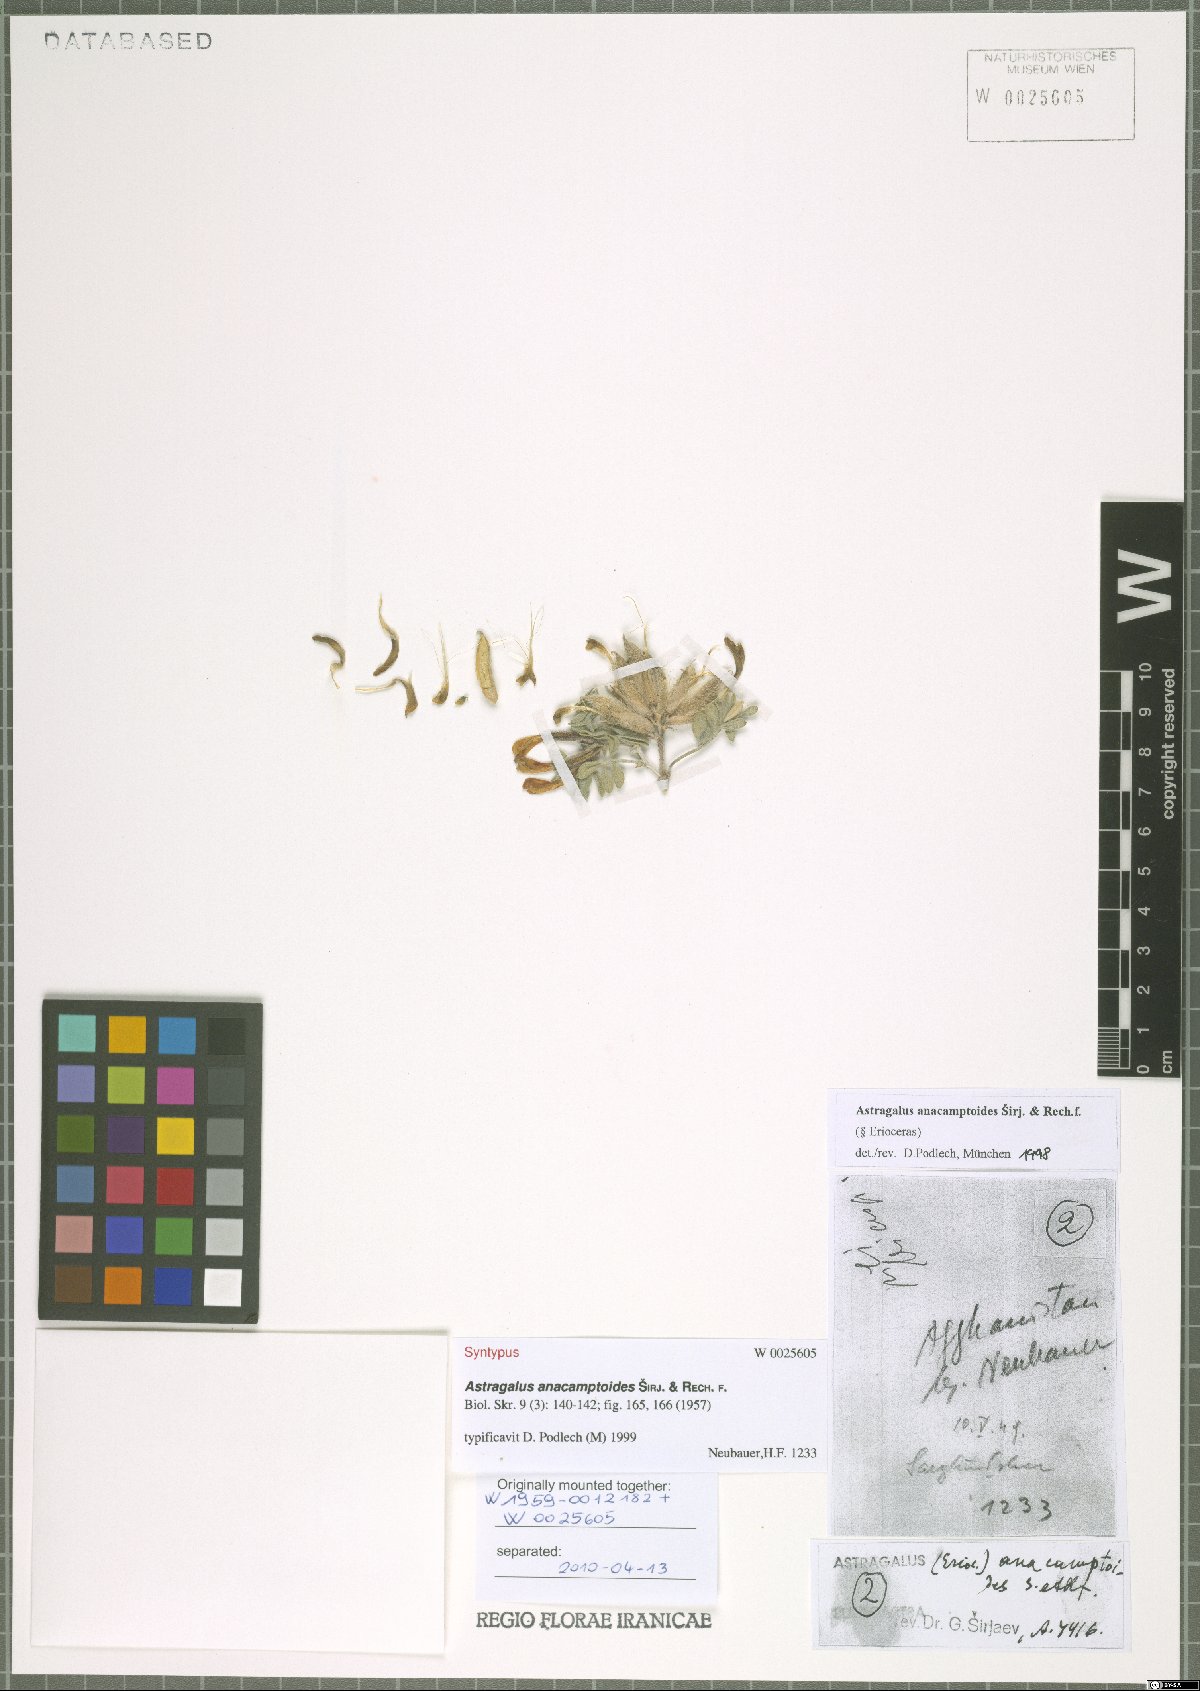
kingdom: Plantae
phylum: Tracheophyta
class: Magnoliopsida
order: Fabales
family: Fabaceae
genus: Astragalus
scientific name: Astragalus anacamptoides
